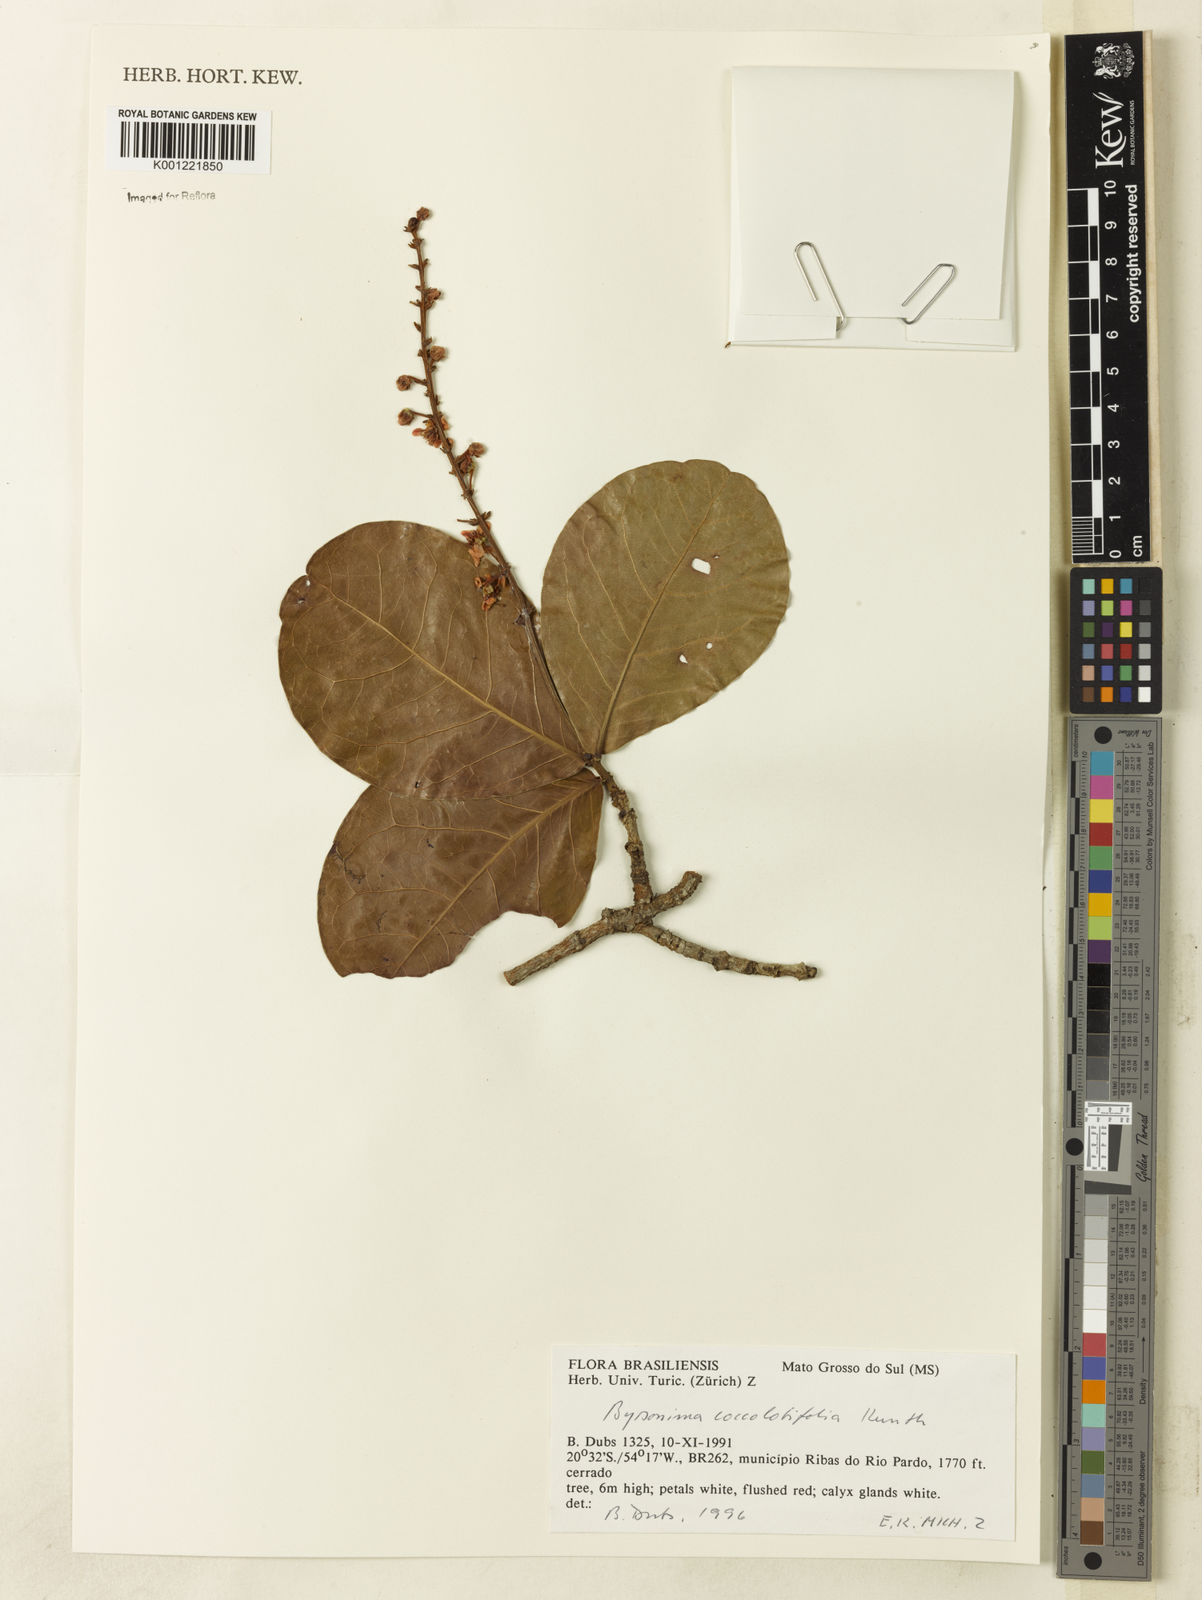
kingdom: Plantae
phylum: Tracheophyta
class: Magnoliopsida
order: Malpighiales
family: Malpighiaceae
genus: Byrsonima
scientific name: Byrsonima coccolobifolia
